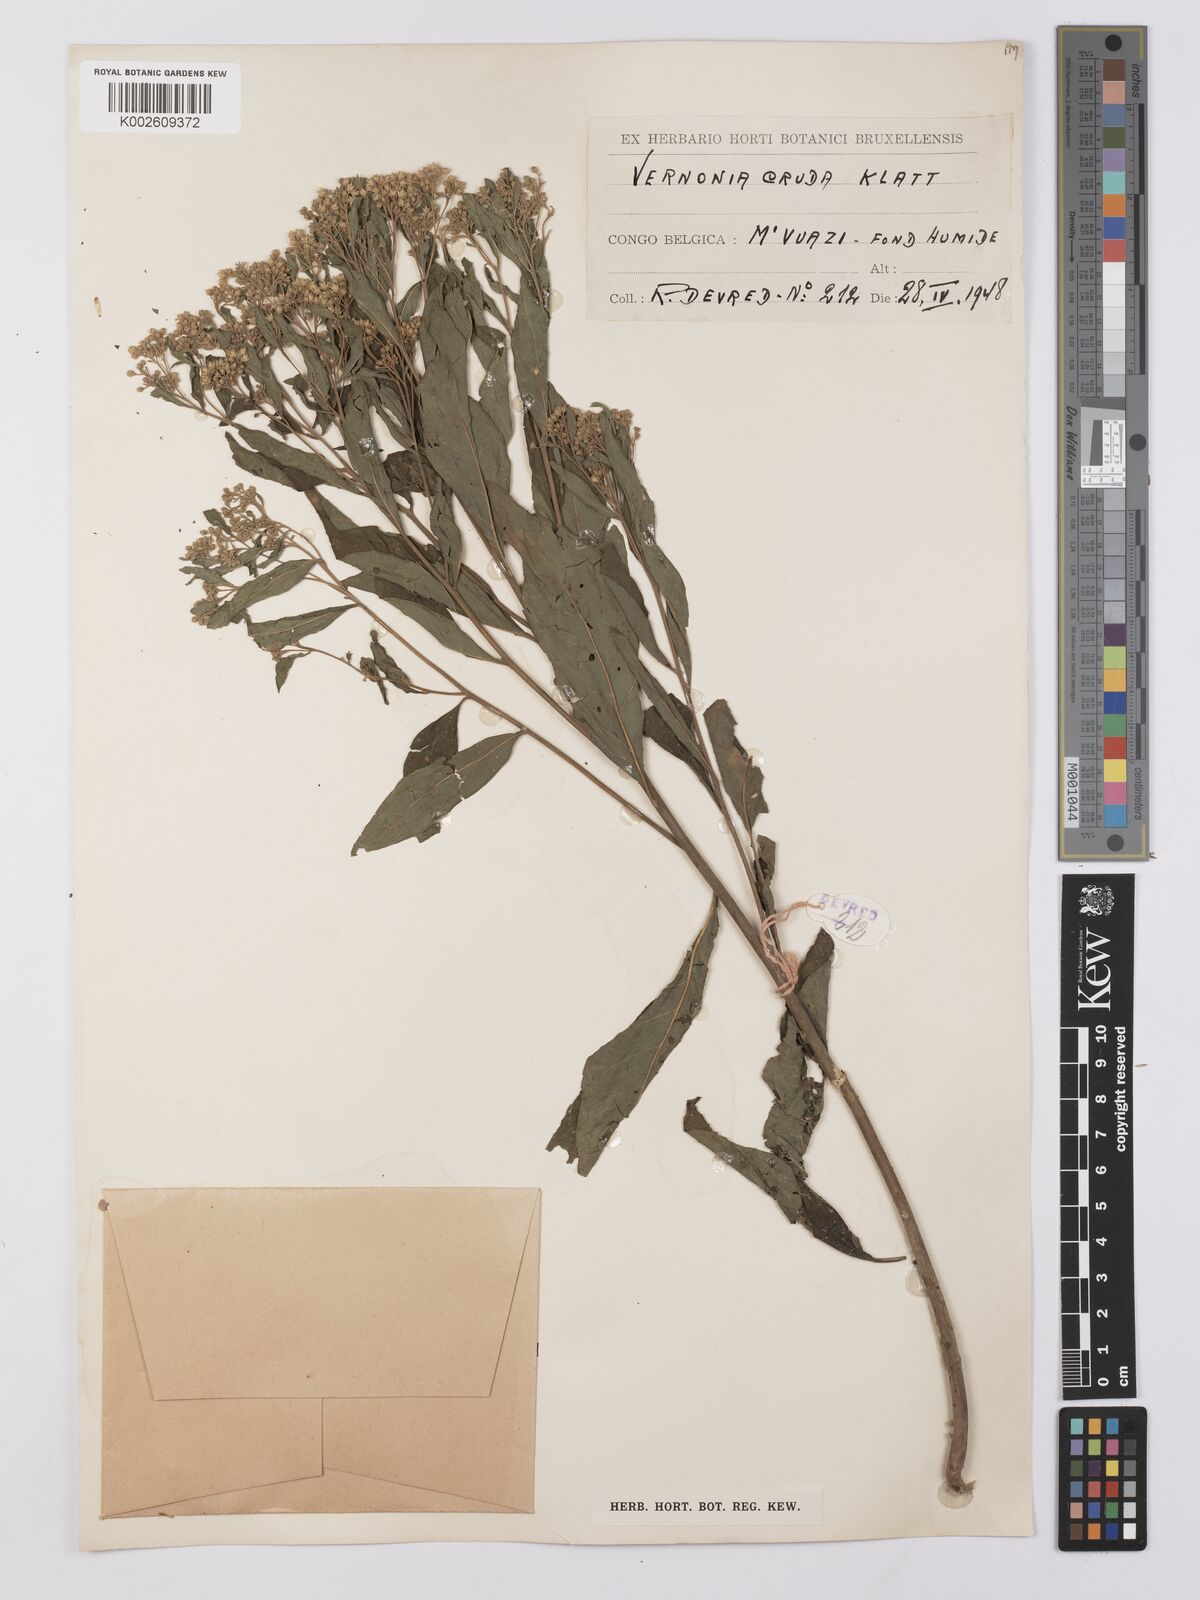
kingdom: Plantae
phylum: Tracheophyta
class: Magnoliopsida
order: Asterales
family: Asteraceae
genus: Gymnanthemum
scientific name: Gymnanthemum thomsonianum
